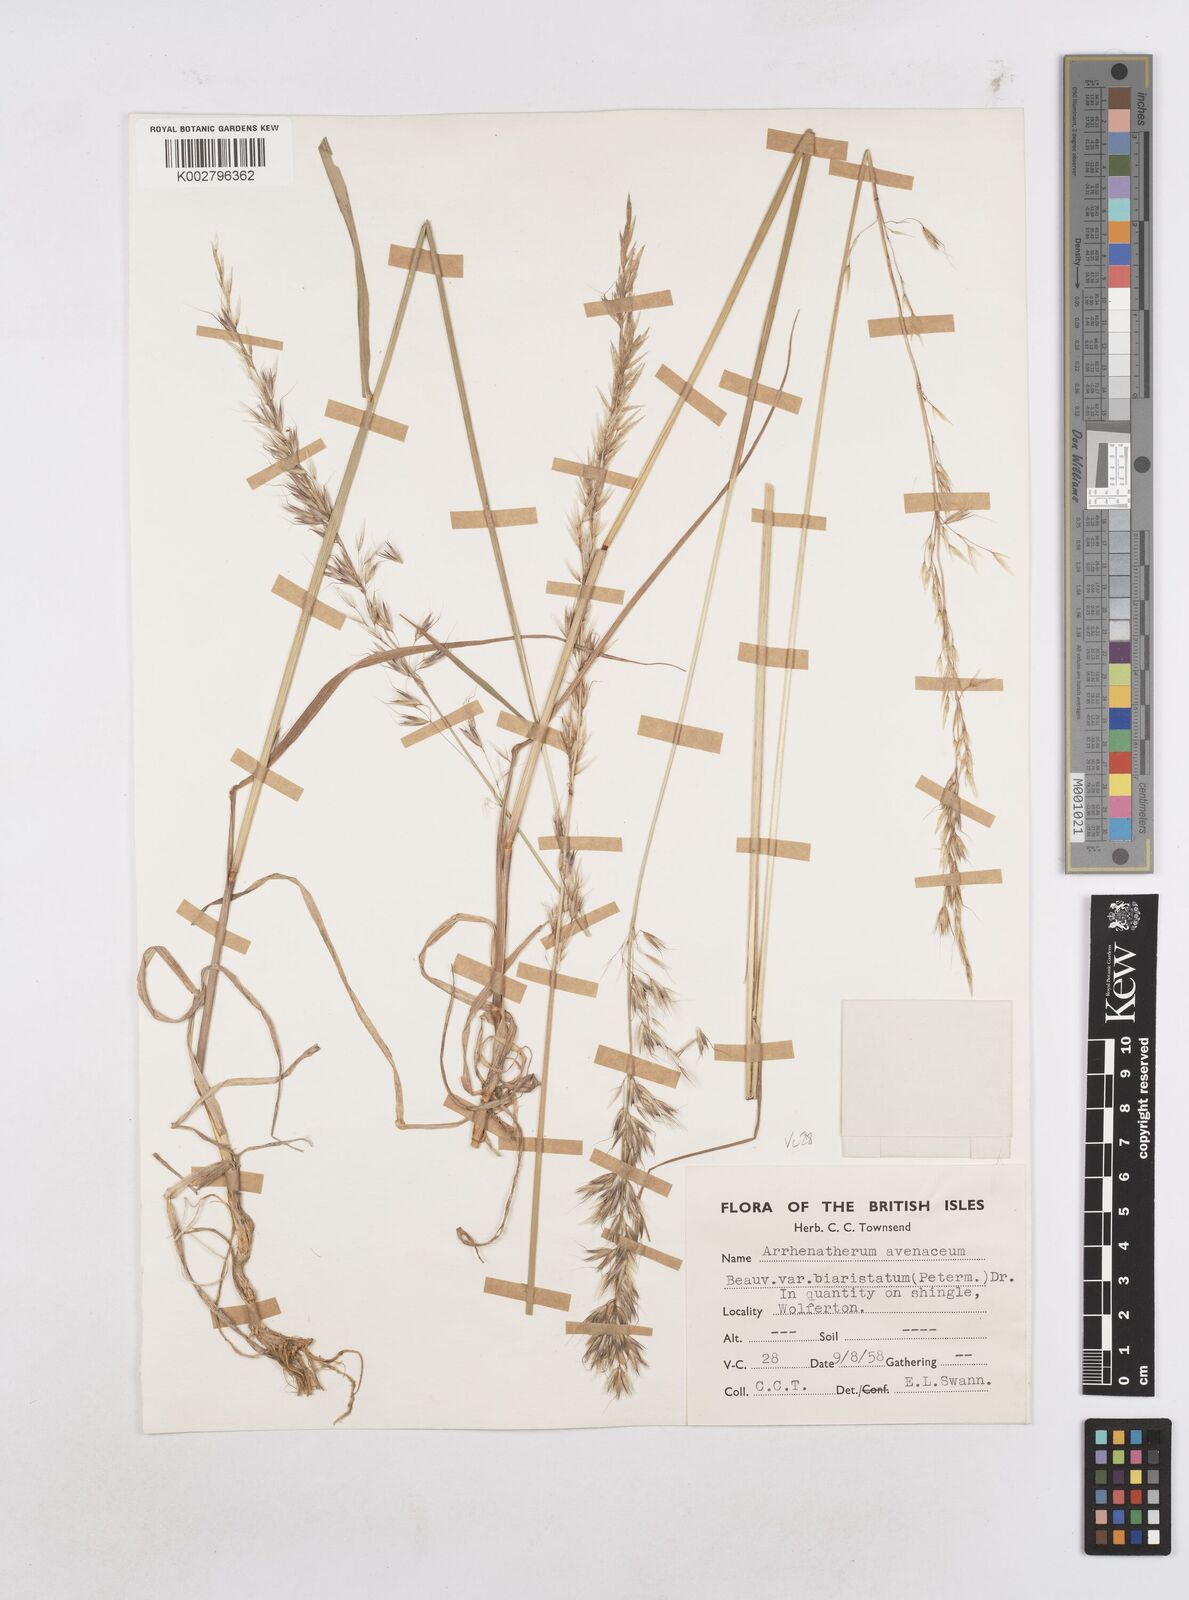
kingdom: Plantae
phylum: Tracheophyta
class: Liliopsida
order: Poales
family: Poaceae
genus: Arrhenatherum
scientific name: Arrhenatherum elatius
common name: Tall oatgrass
